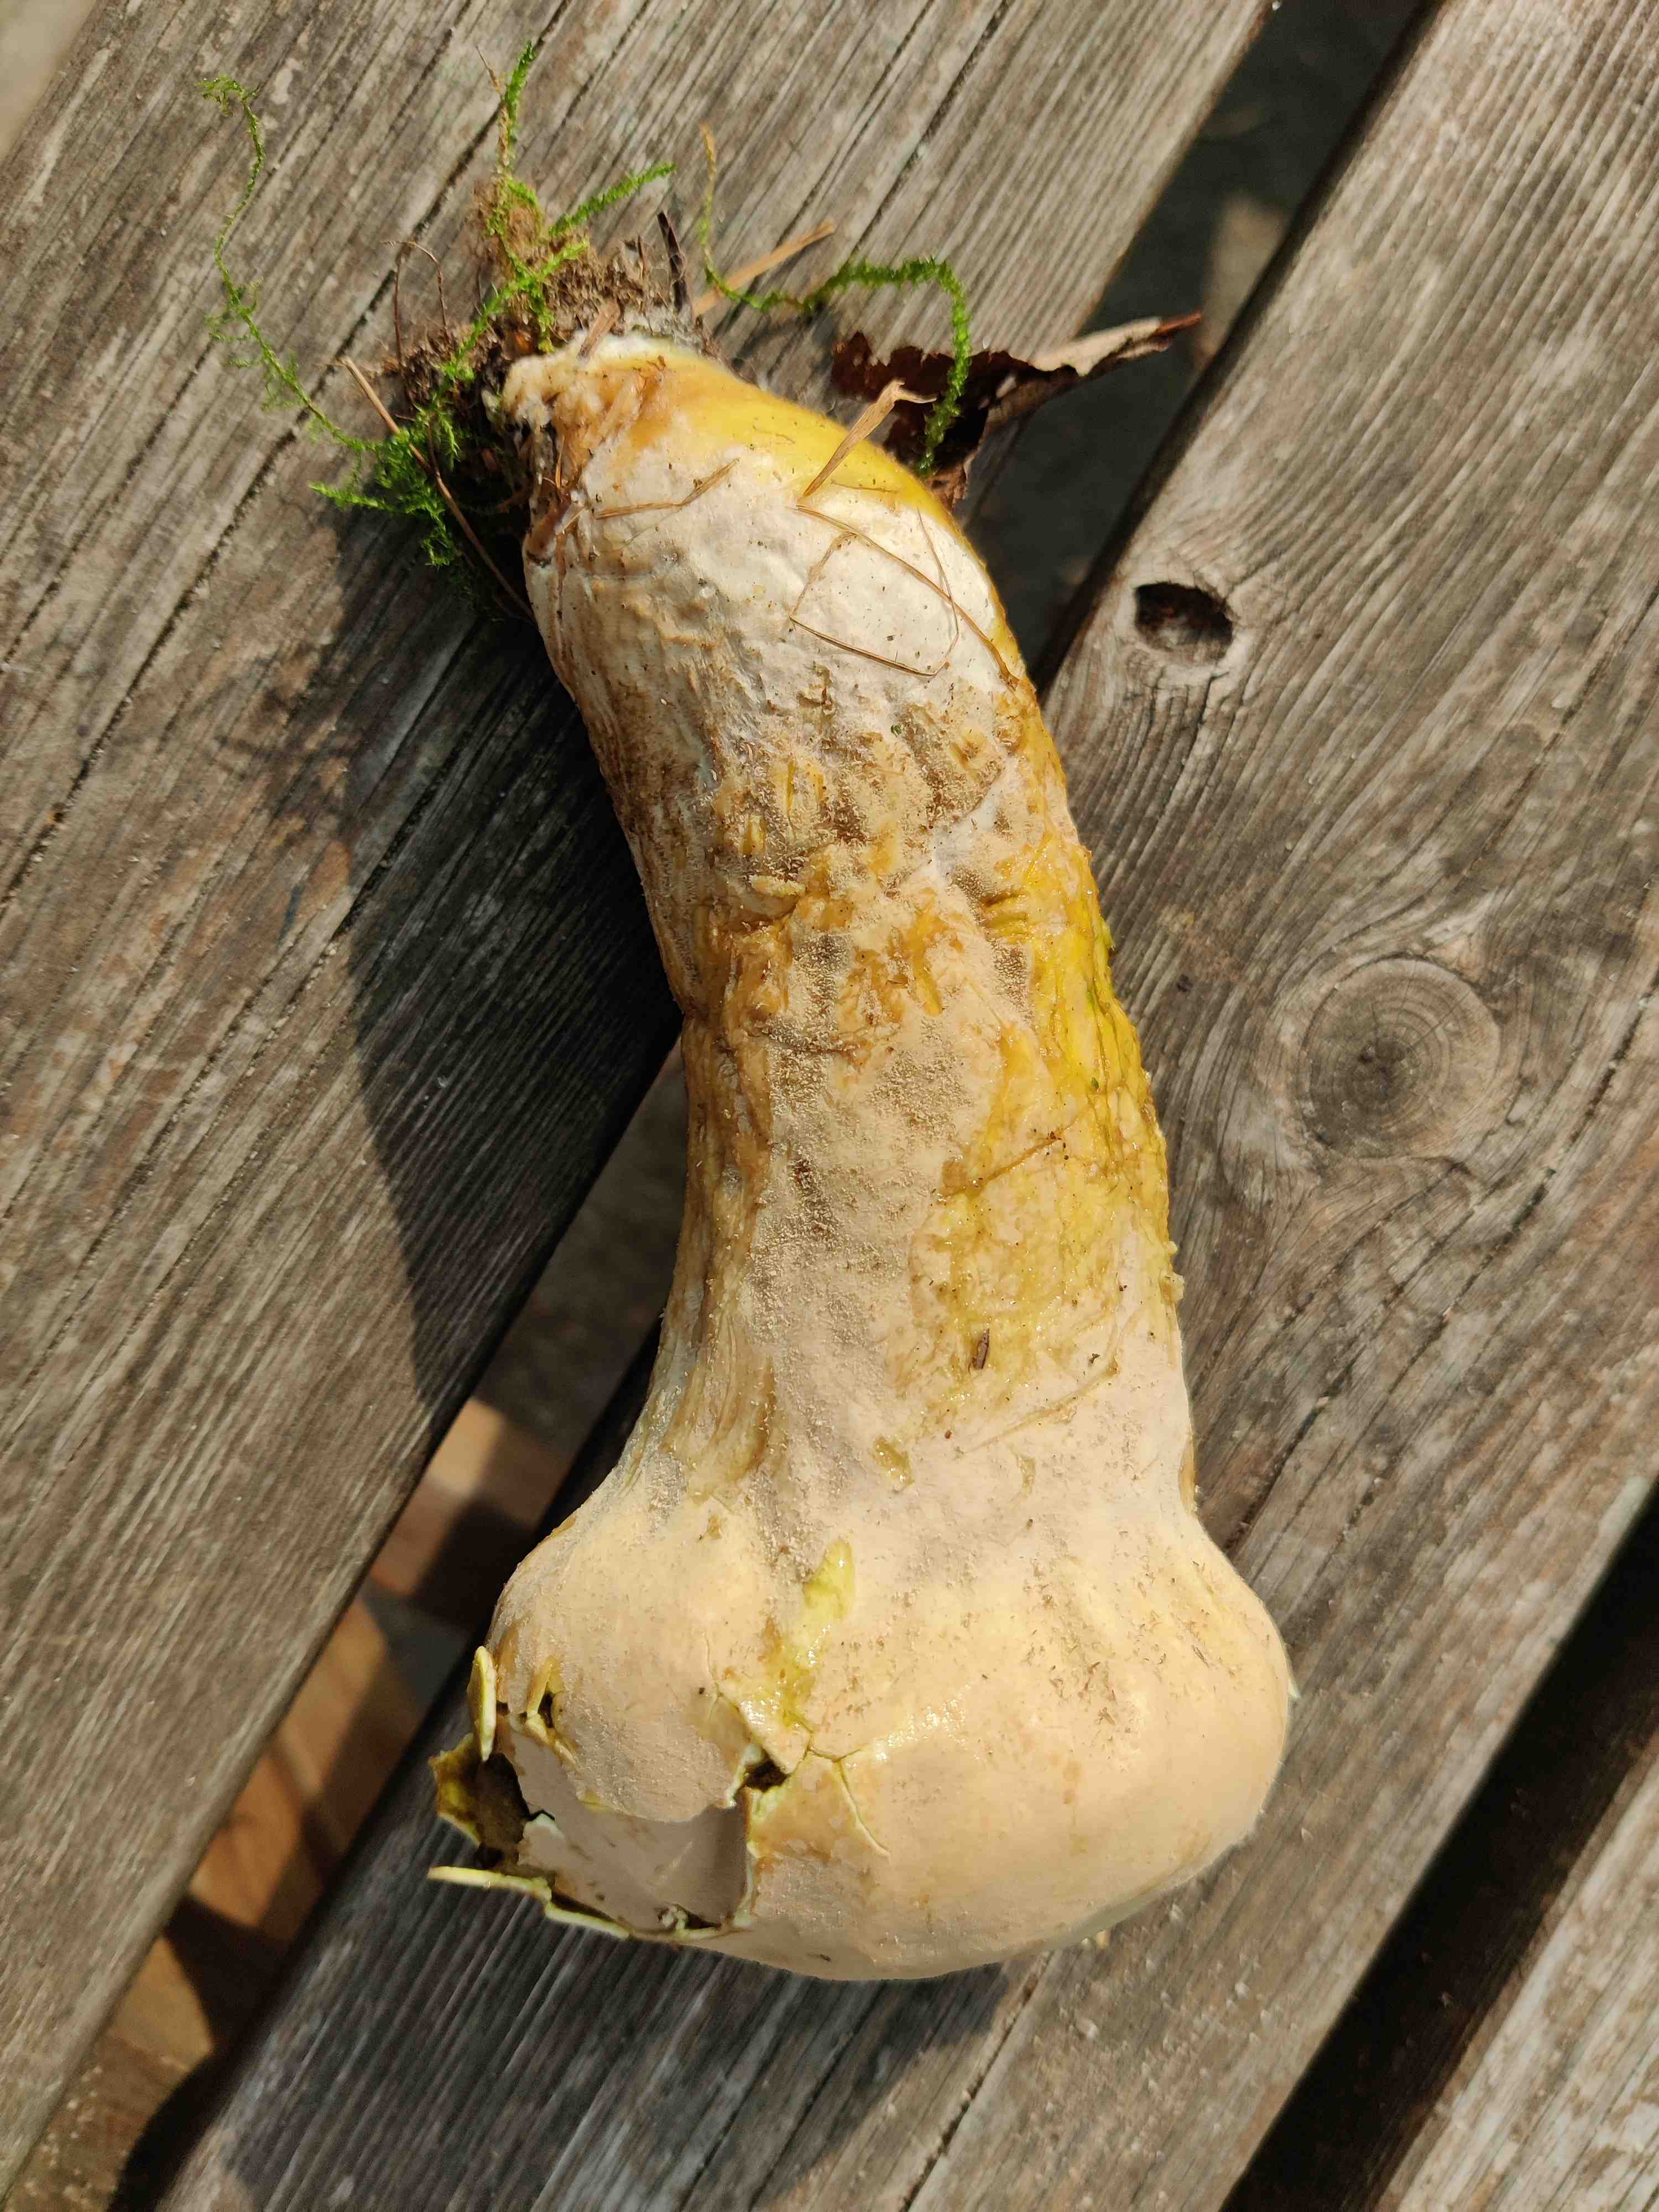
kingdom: Fungi
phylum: Basidiomycota
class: Agaricomycetes
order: Agaricales
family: Lycoperdaceae
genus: Lycoperdon
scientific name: Lycoperdon excipuliforme
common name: højstokket støvbold
